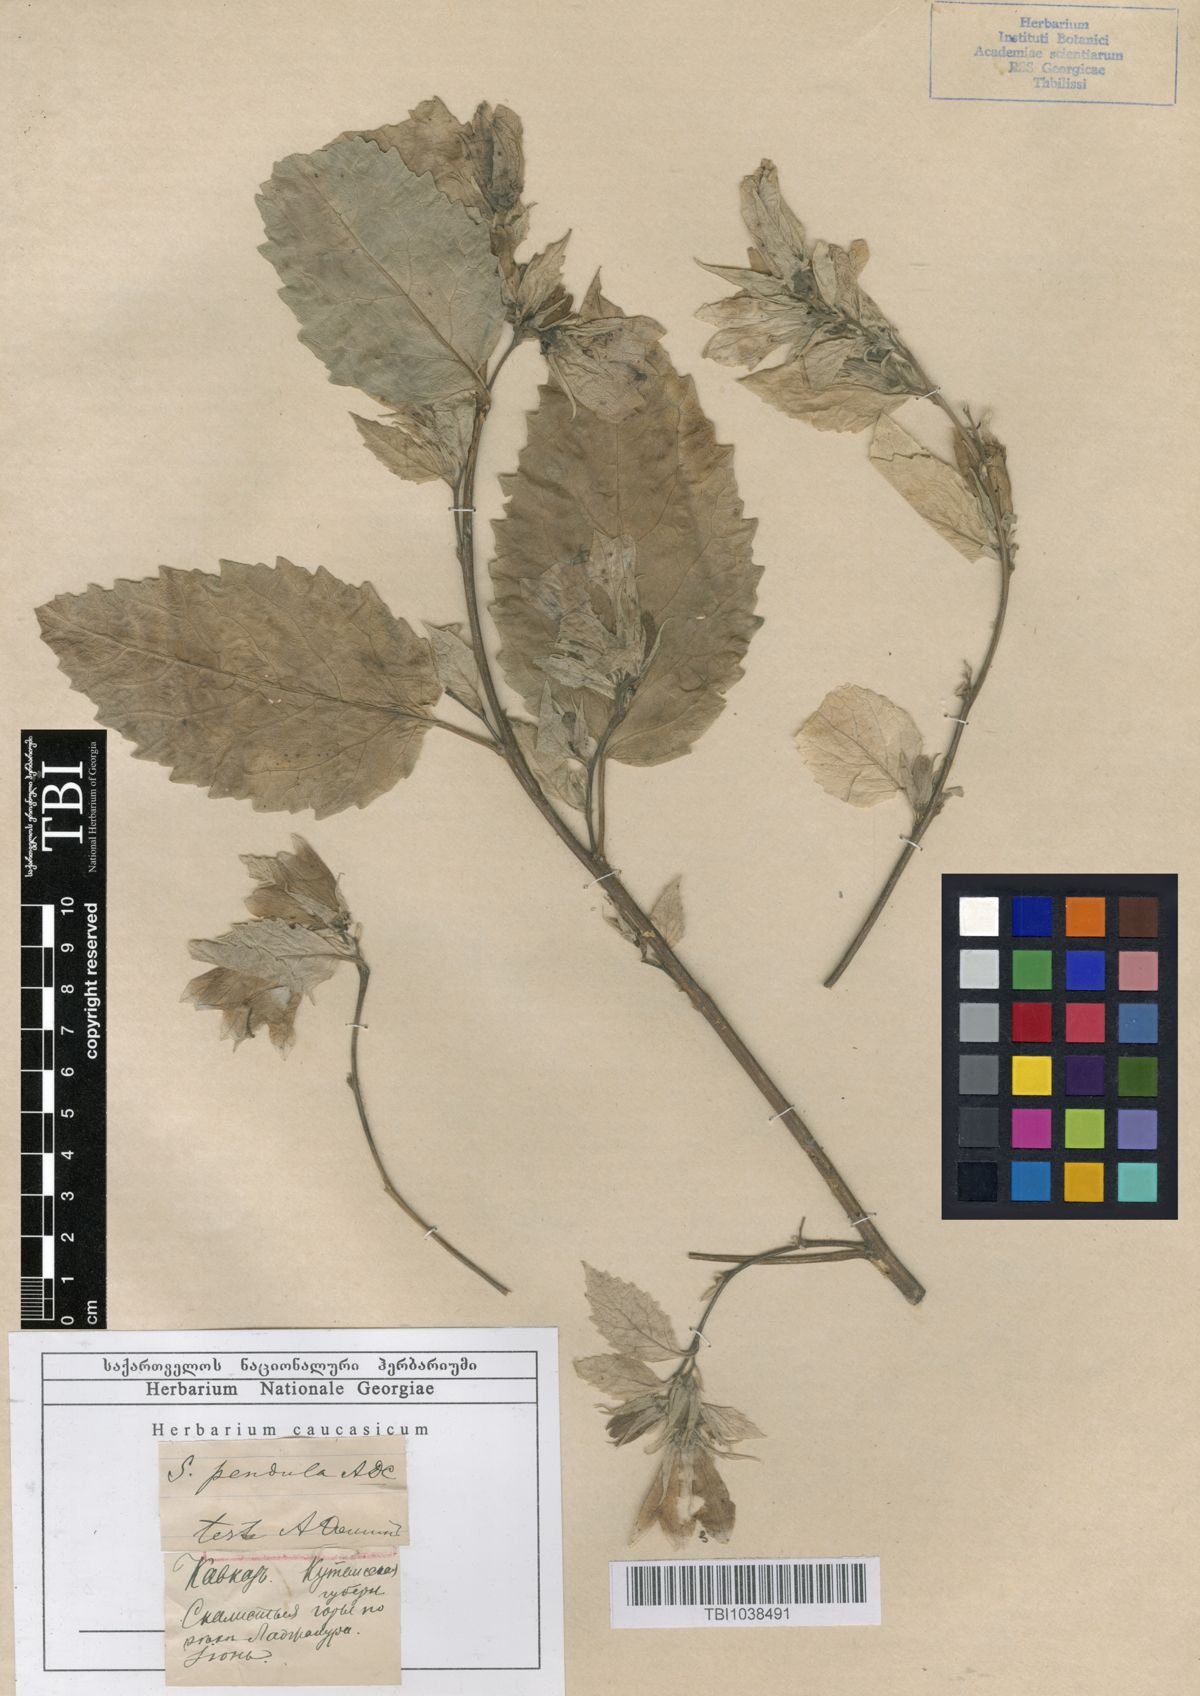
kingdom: Plantae
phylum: Tracheophyta
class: Magnoliopsida
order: Asterales
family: Campanulaceae
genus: Campanula
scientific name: Campanula pendula
